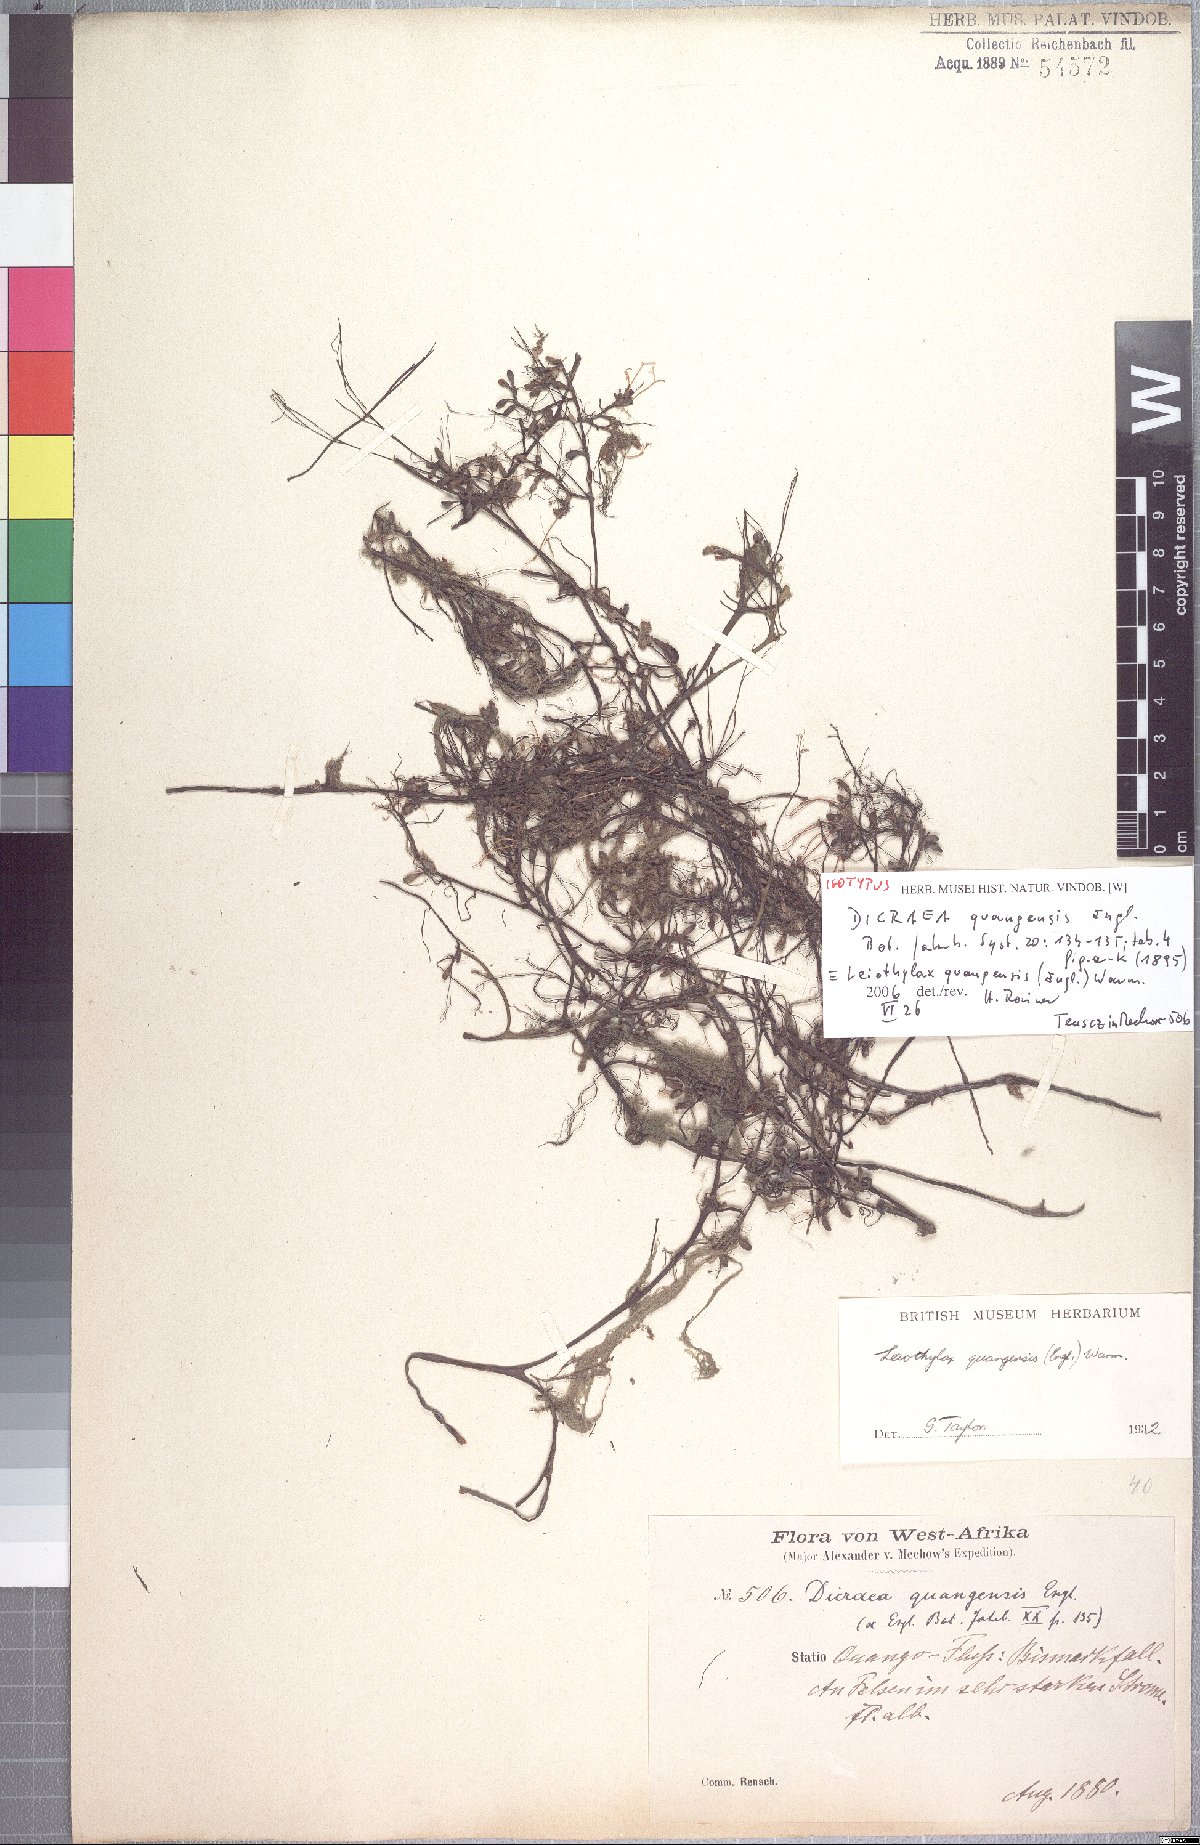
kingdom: Plantae
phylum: Tracheophyta
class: Magnoliopsida
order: Malpighiales
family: Podostemaceae
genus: Leiothylax
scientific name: Leiothylax quangensis
